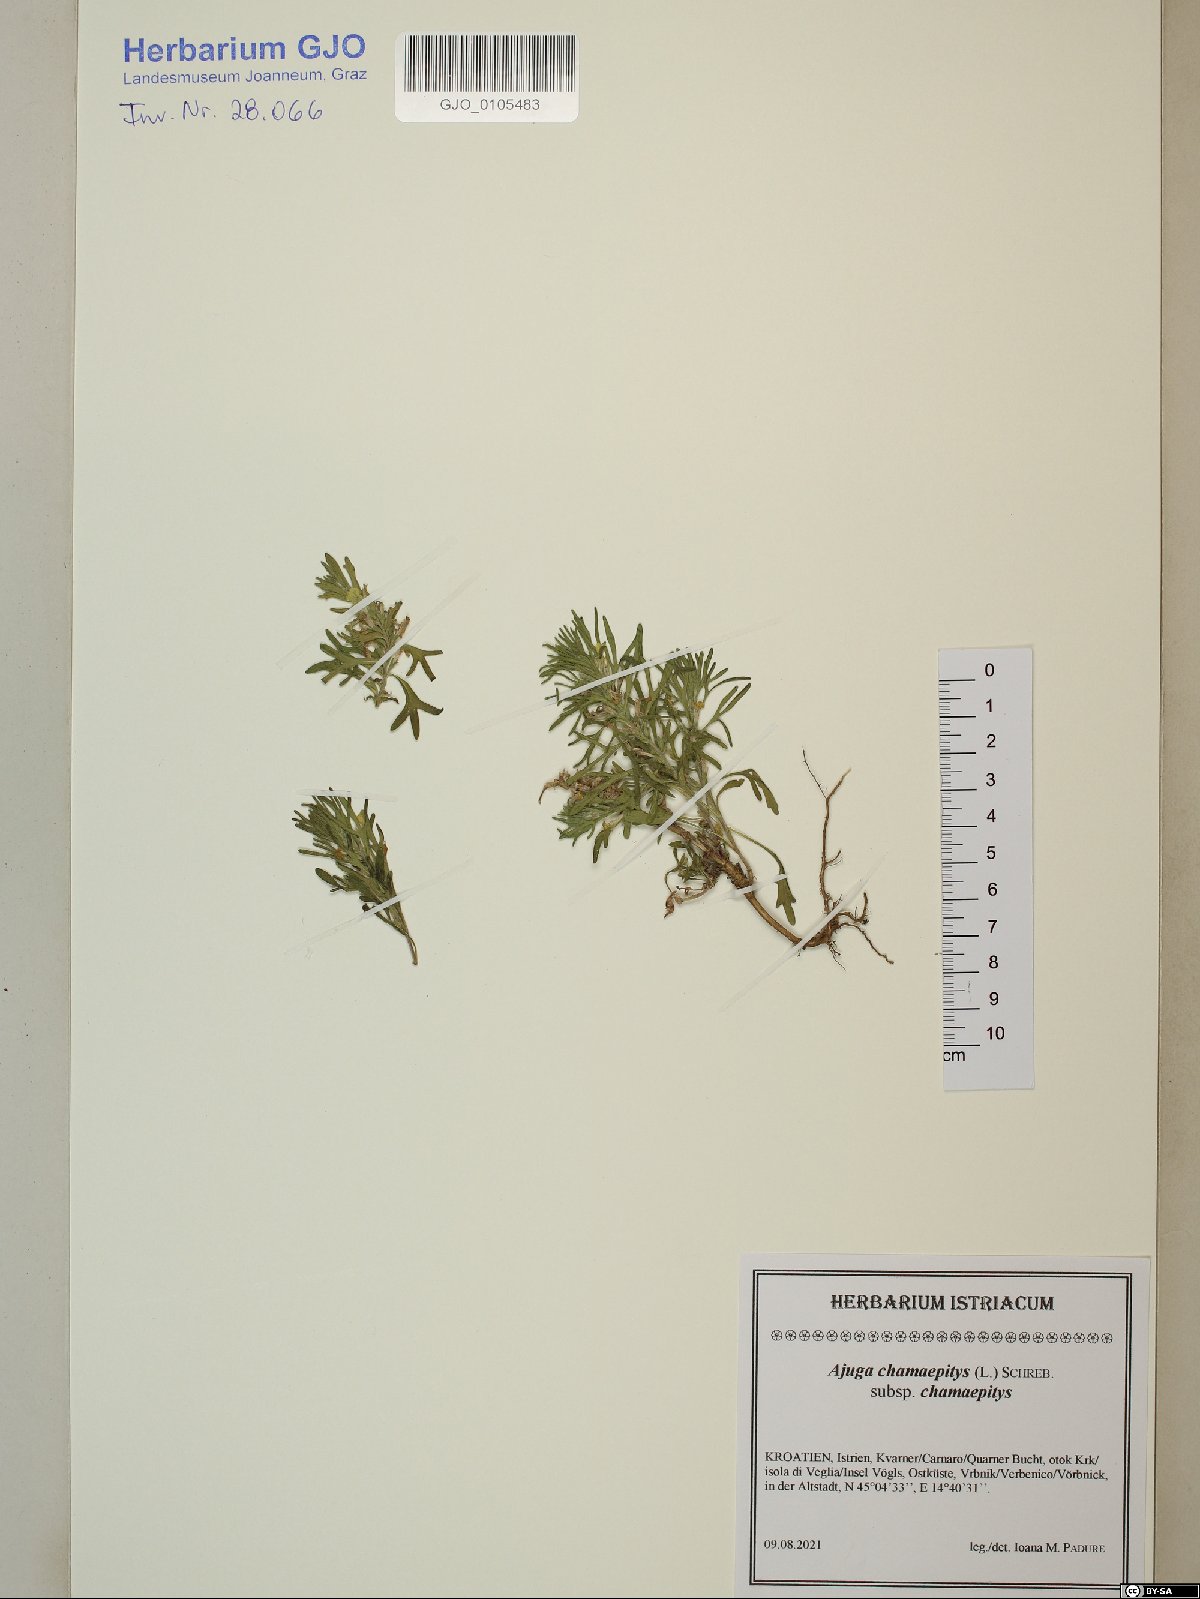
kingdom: Plantae
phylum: Tracheophyta
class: Magnoliopsida
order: Lamiales
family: Lamiaceae
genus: Ajuga
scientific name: Ajuga chamaepitys
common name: Ground-pine
